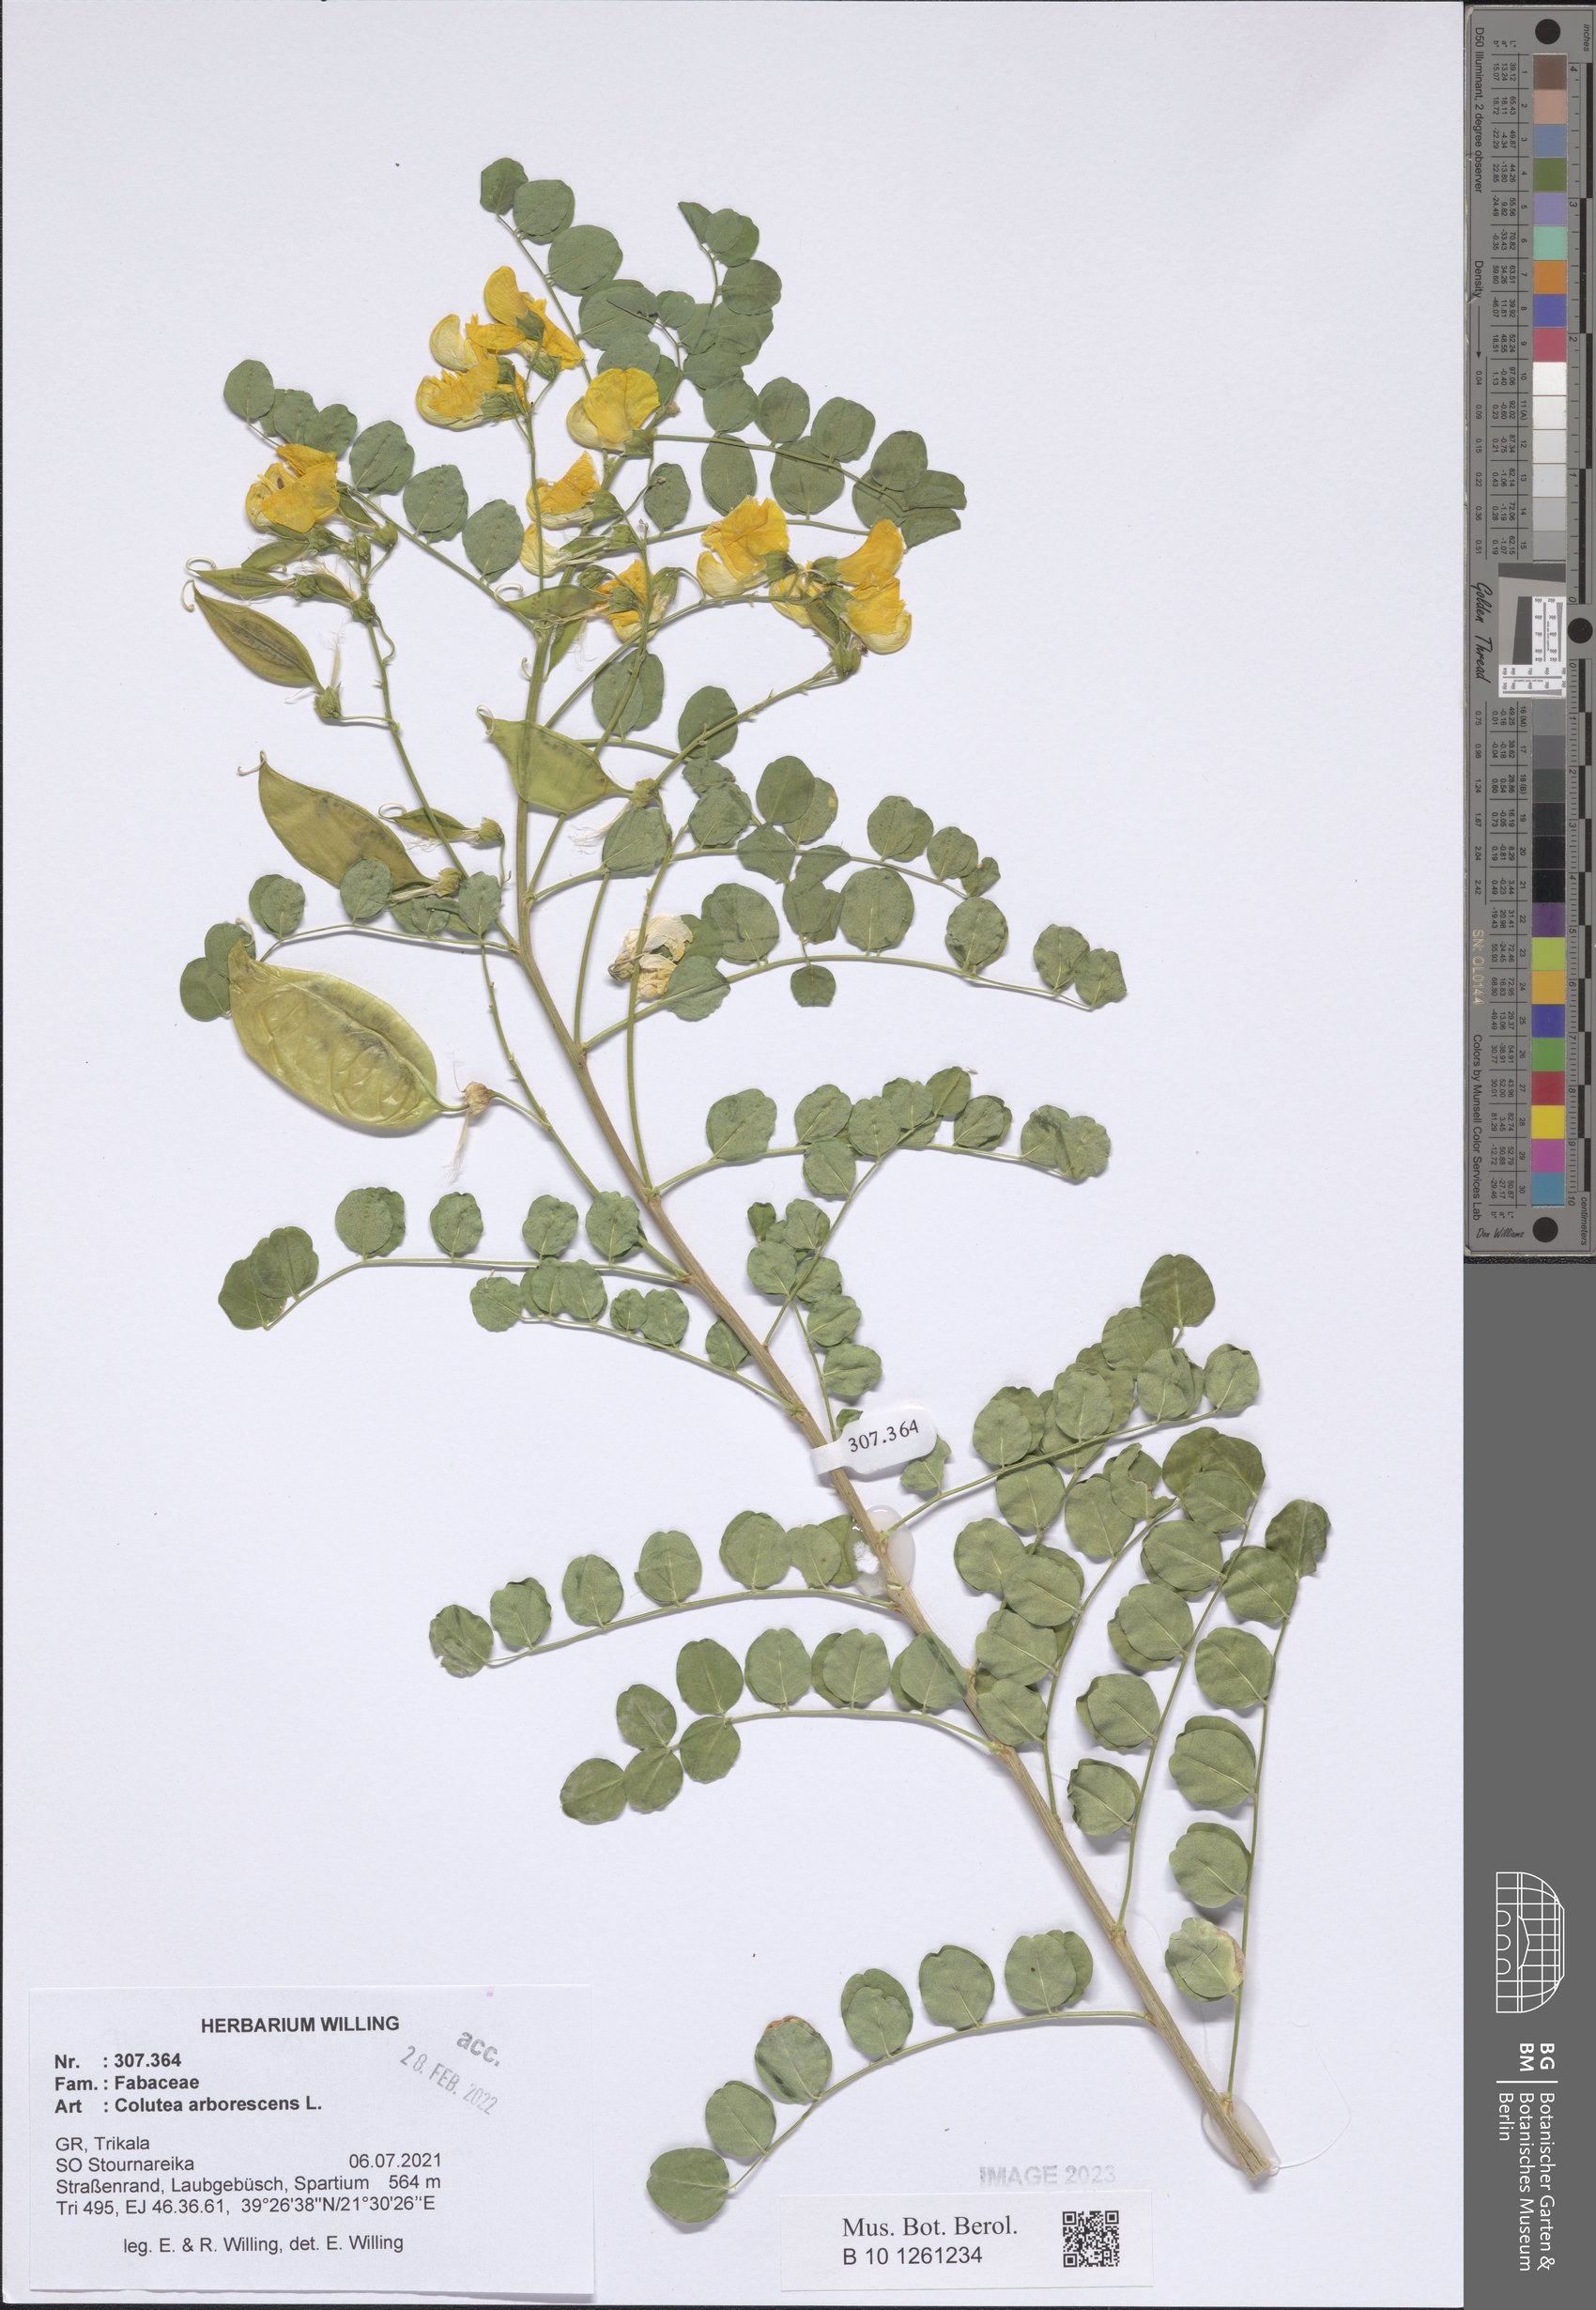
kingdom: Plantae
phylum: Tracheophyta
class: Magnoliopsida
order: Fabales
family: Fabaceae
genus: Colutea
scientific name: Colutea arborescens
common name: Bladder-senna
